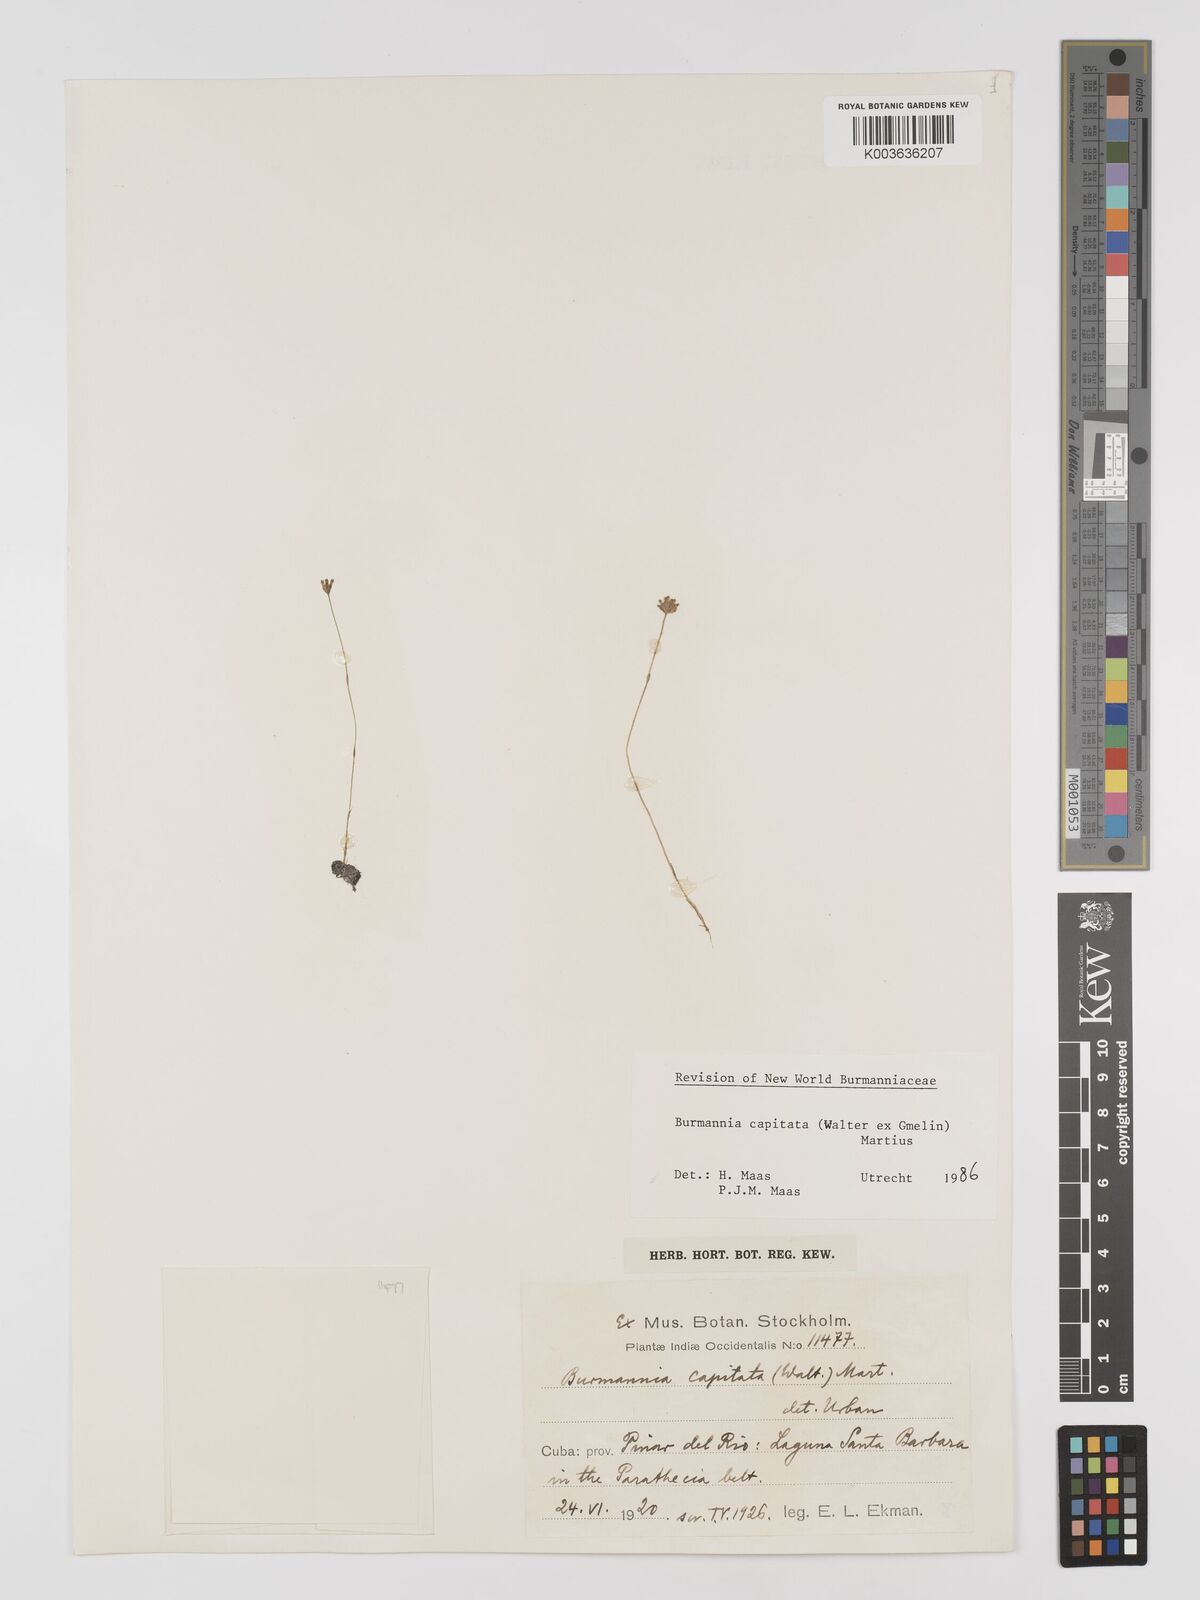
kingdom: Plantae
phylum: Tracheophyta
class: Liliopsida
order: Dioscoreales
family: Burmanniaceae
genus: Burmannia
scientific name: Burmannia capitata
